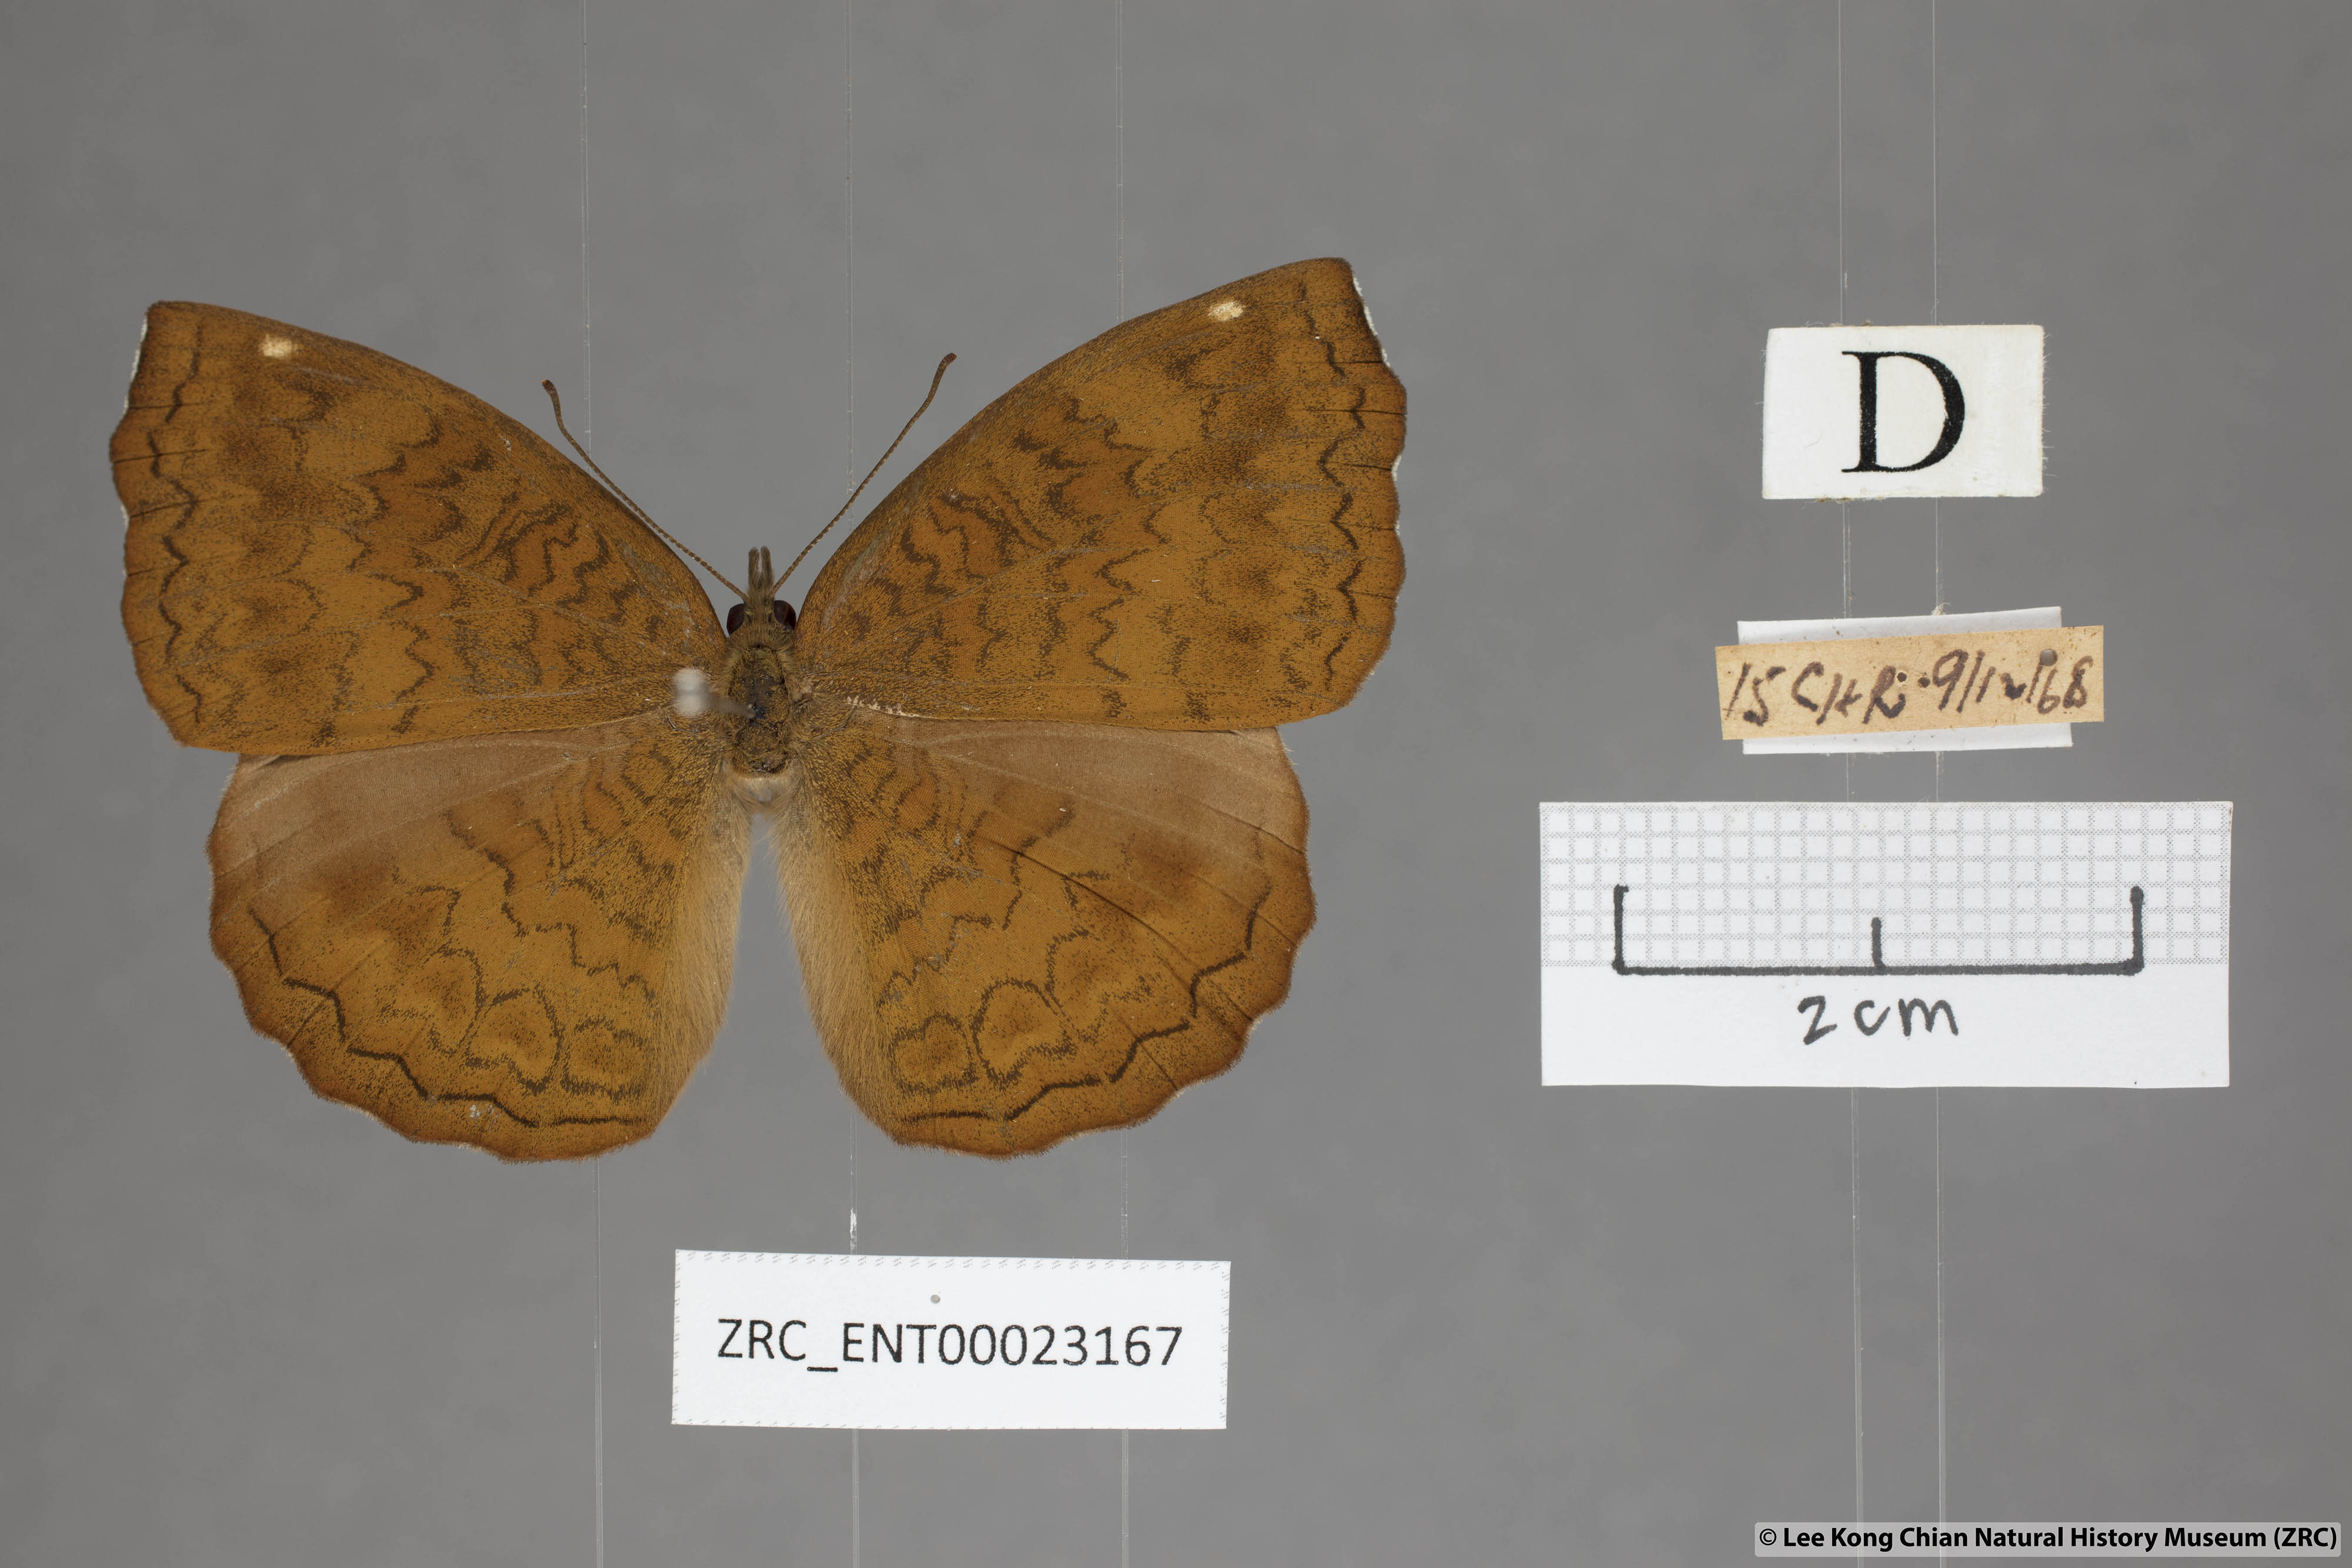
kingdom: Animalia
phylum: Arthropoda
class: Insecta
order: Lepidoptera
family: Nymphalidae
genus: Ariadne
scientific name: Ariadne merione
